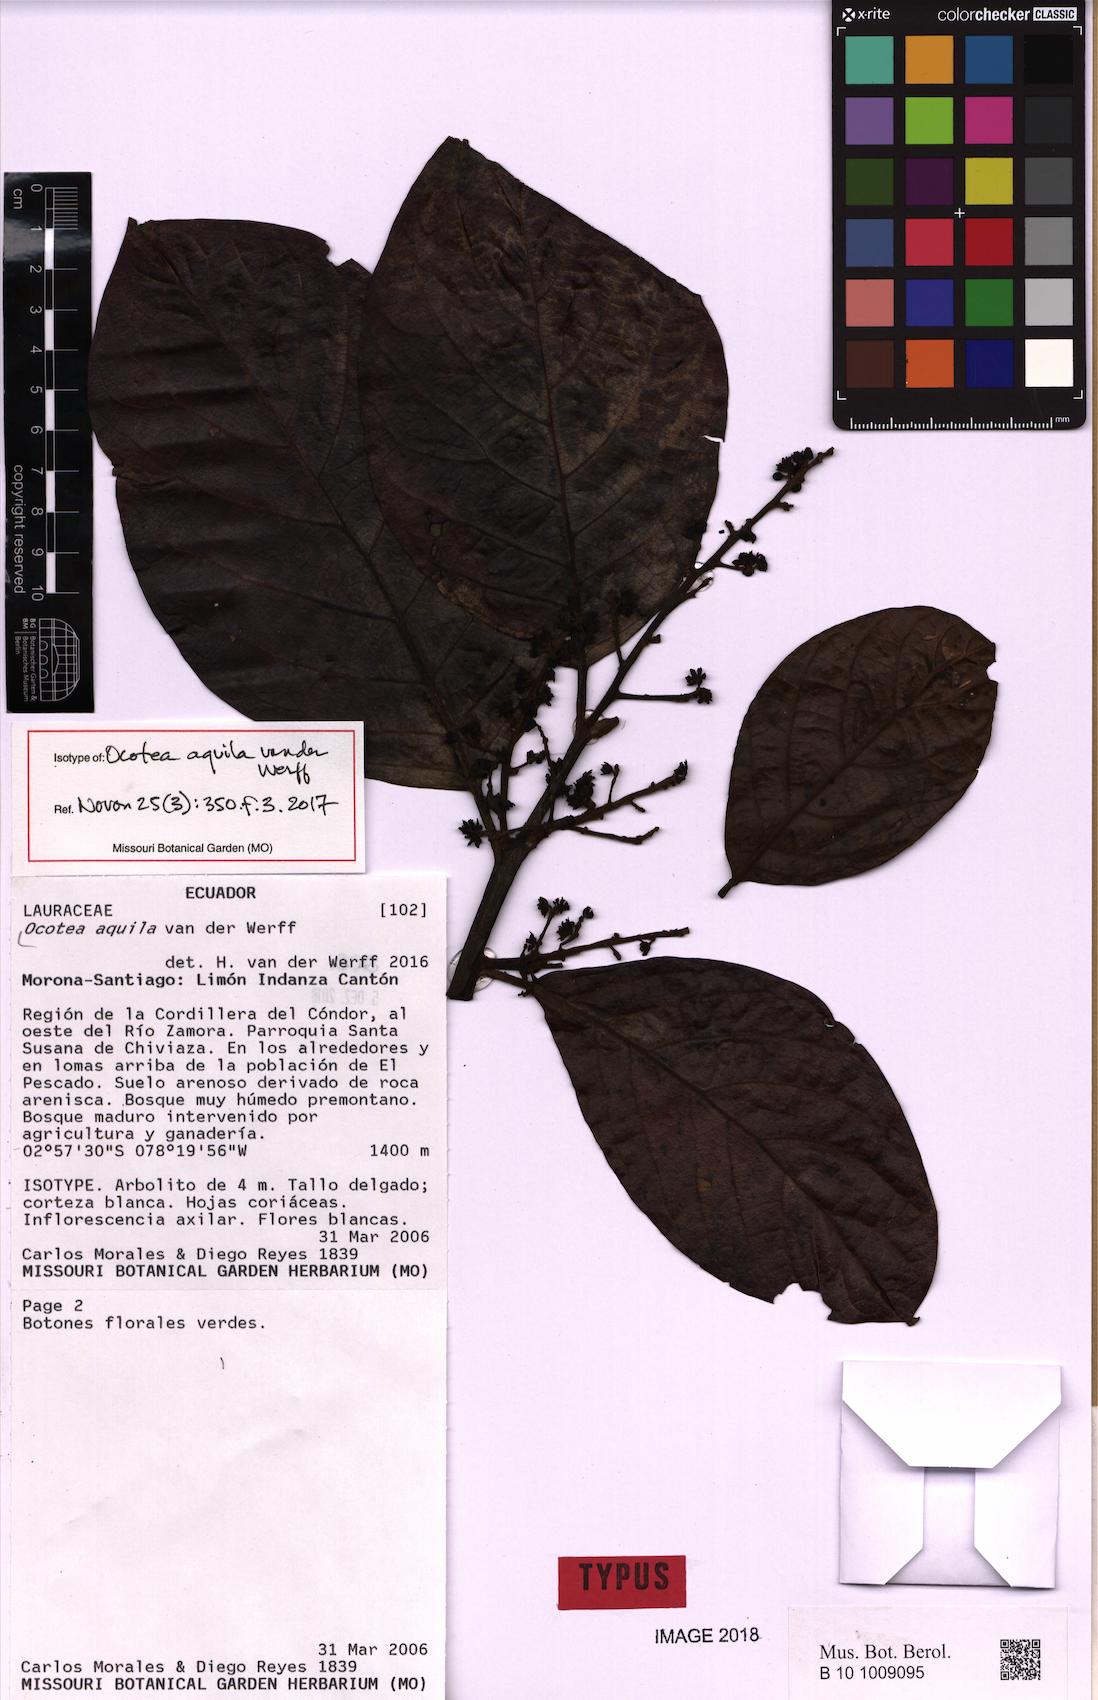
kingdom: Plantae
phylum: Tracheophyta
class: Magnoliopsida
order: Laurales
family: Lauraceae
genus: Ocotea
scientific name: Ocotea aquila
